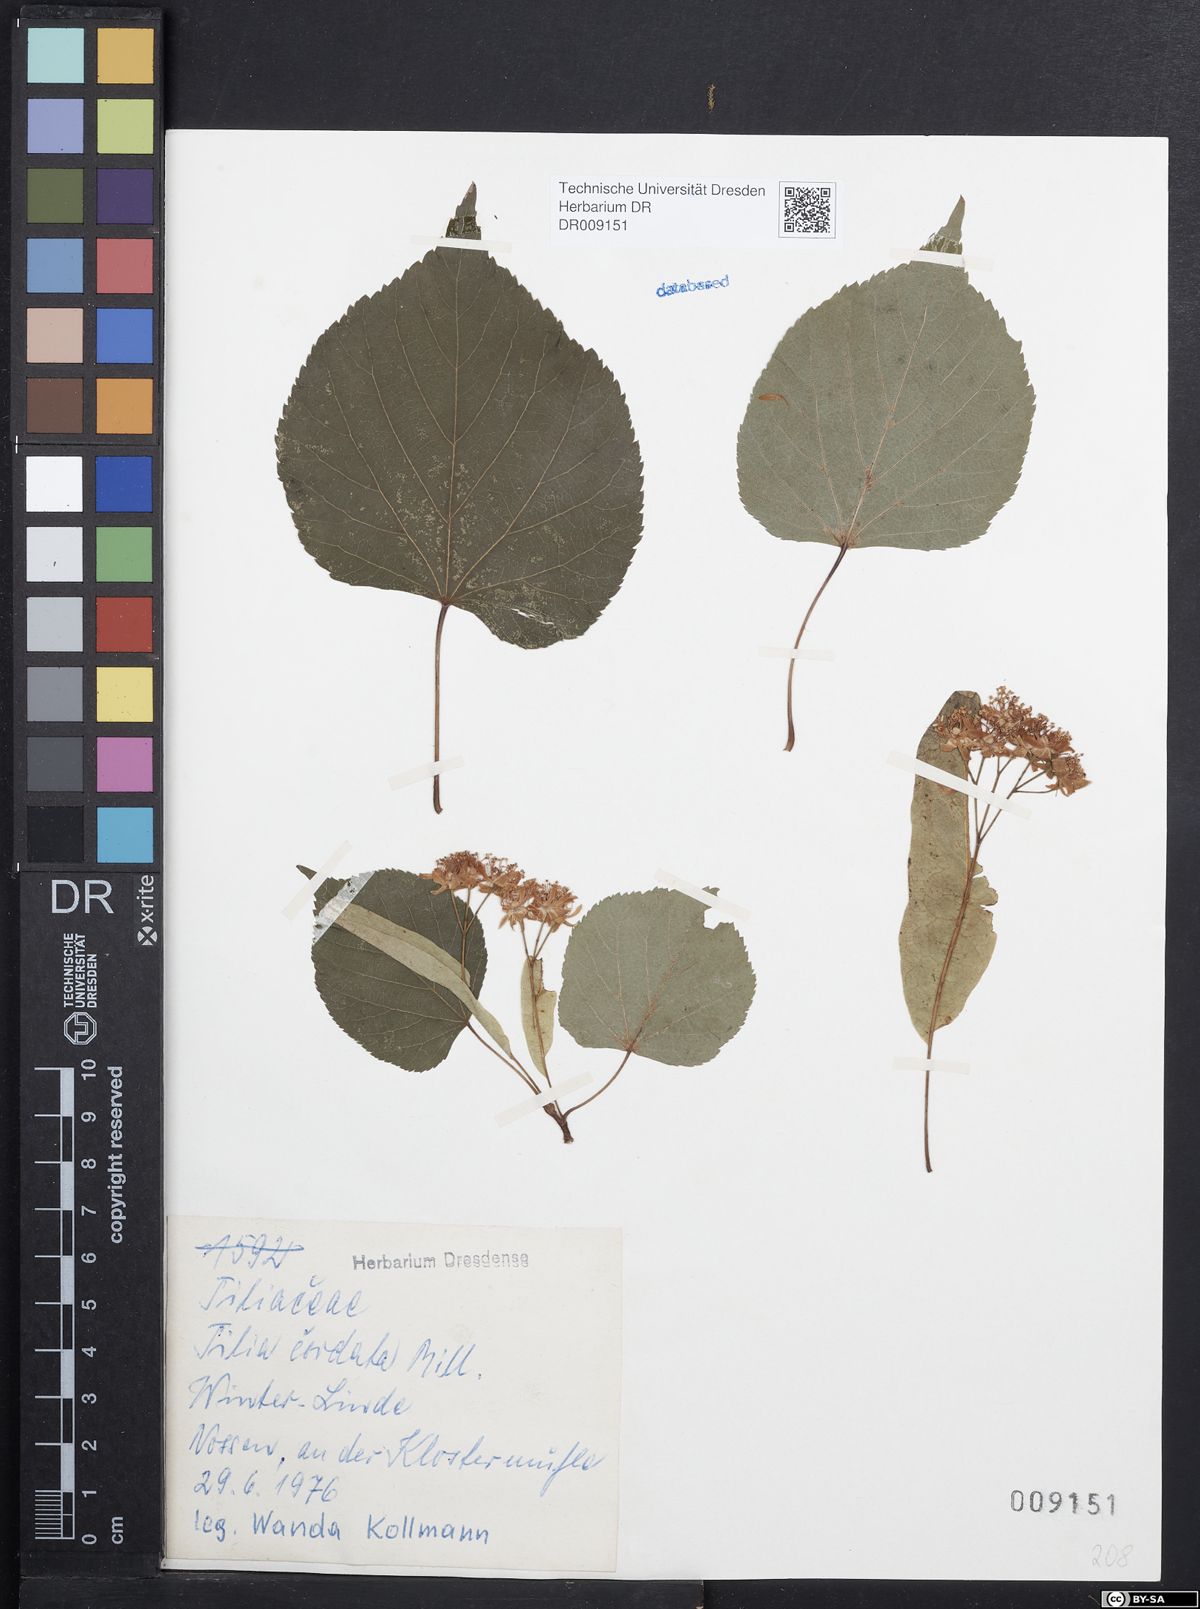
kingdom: Plantae
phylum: Tracheophyta
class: Magnoliopsida
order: Malvales
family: Malvaceae
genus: Tilia
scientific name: Tilia cordata
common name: Small-leaved lime
